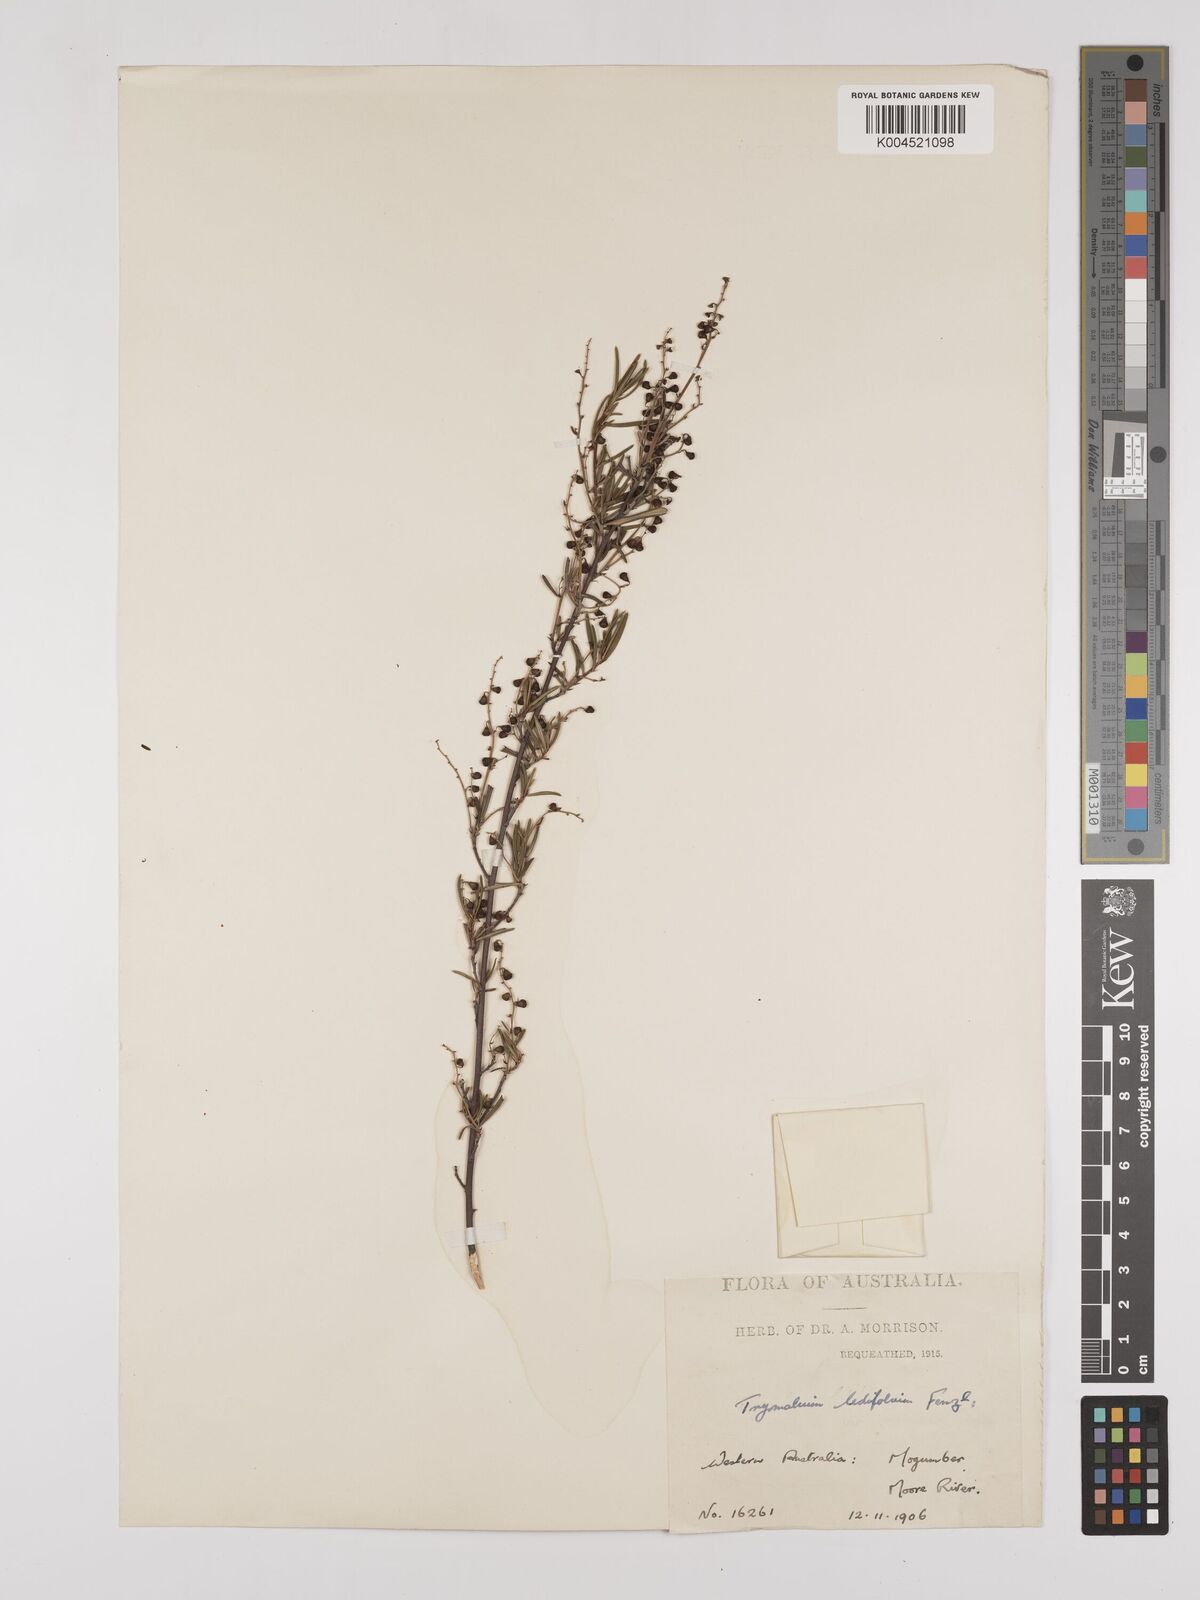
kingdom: Plantae
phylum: Tracheophyta
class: Magnoliopsida
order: Rosales
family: Rhamnaceae
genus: Trymalium
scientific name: Trymalium ledifolium
